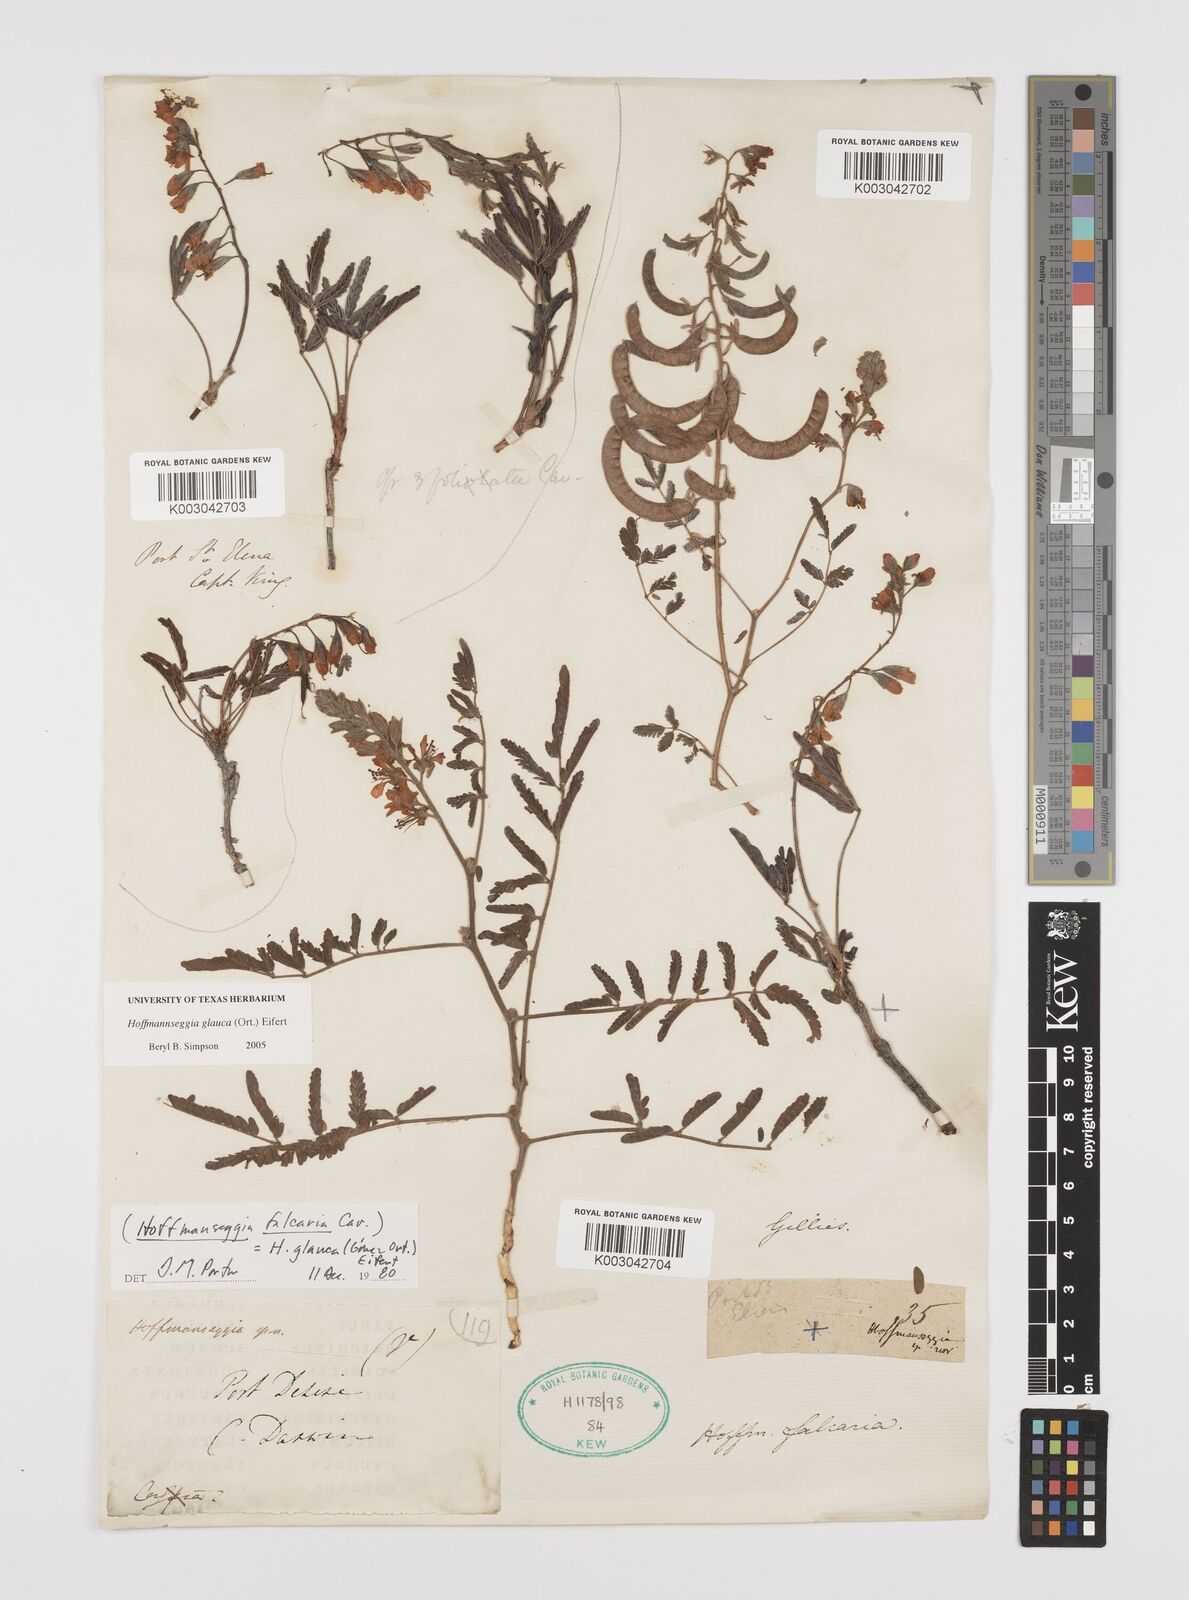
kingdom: Plantae
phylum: Tracheophyta
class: Magnoliopsida
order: Fabales
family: Fabaceae
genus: Hoffmannseggia
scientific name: Hoffmannseggia glauca
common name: Pignut
